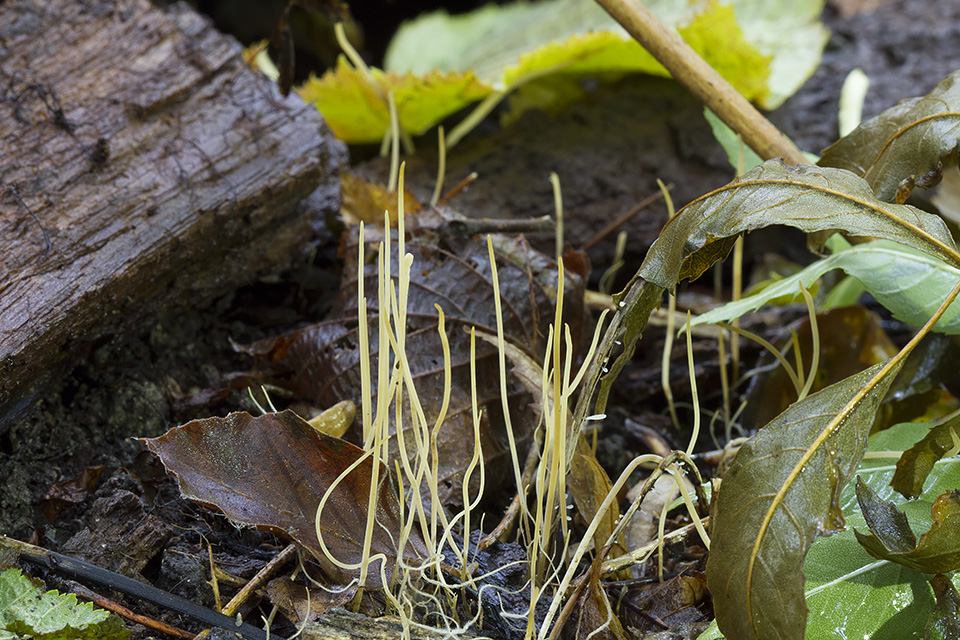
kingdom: Fungi
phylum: Basidiomycota
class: Agaricomycetes
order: Agaricales
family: Typhulaceae
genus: Typhula
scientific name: Typhula juncea
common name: trådagtig rørkølle
